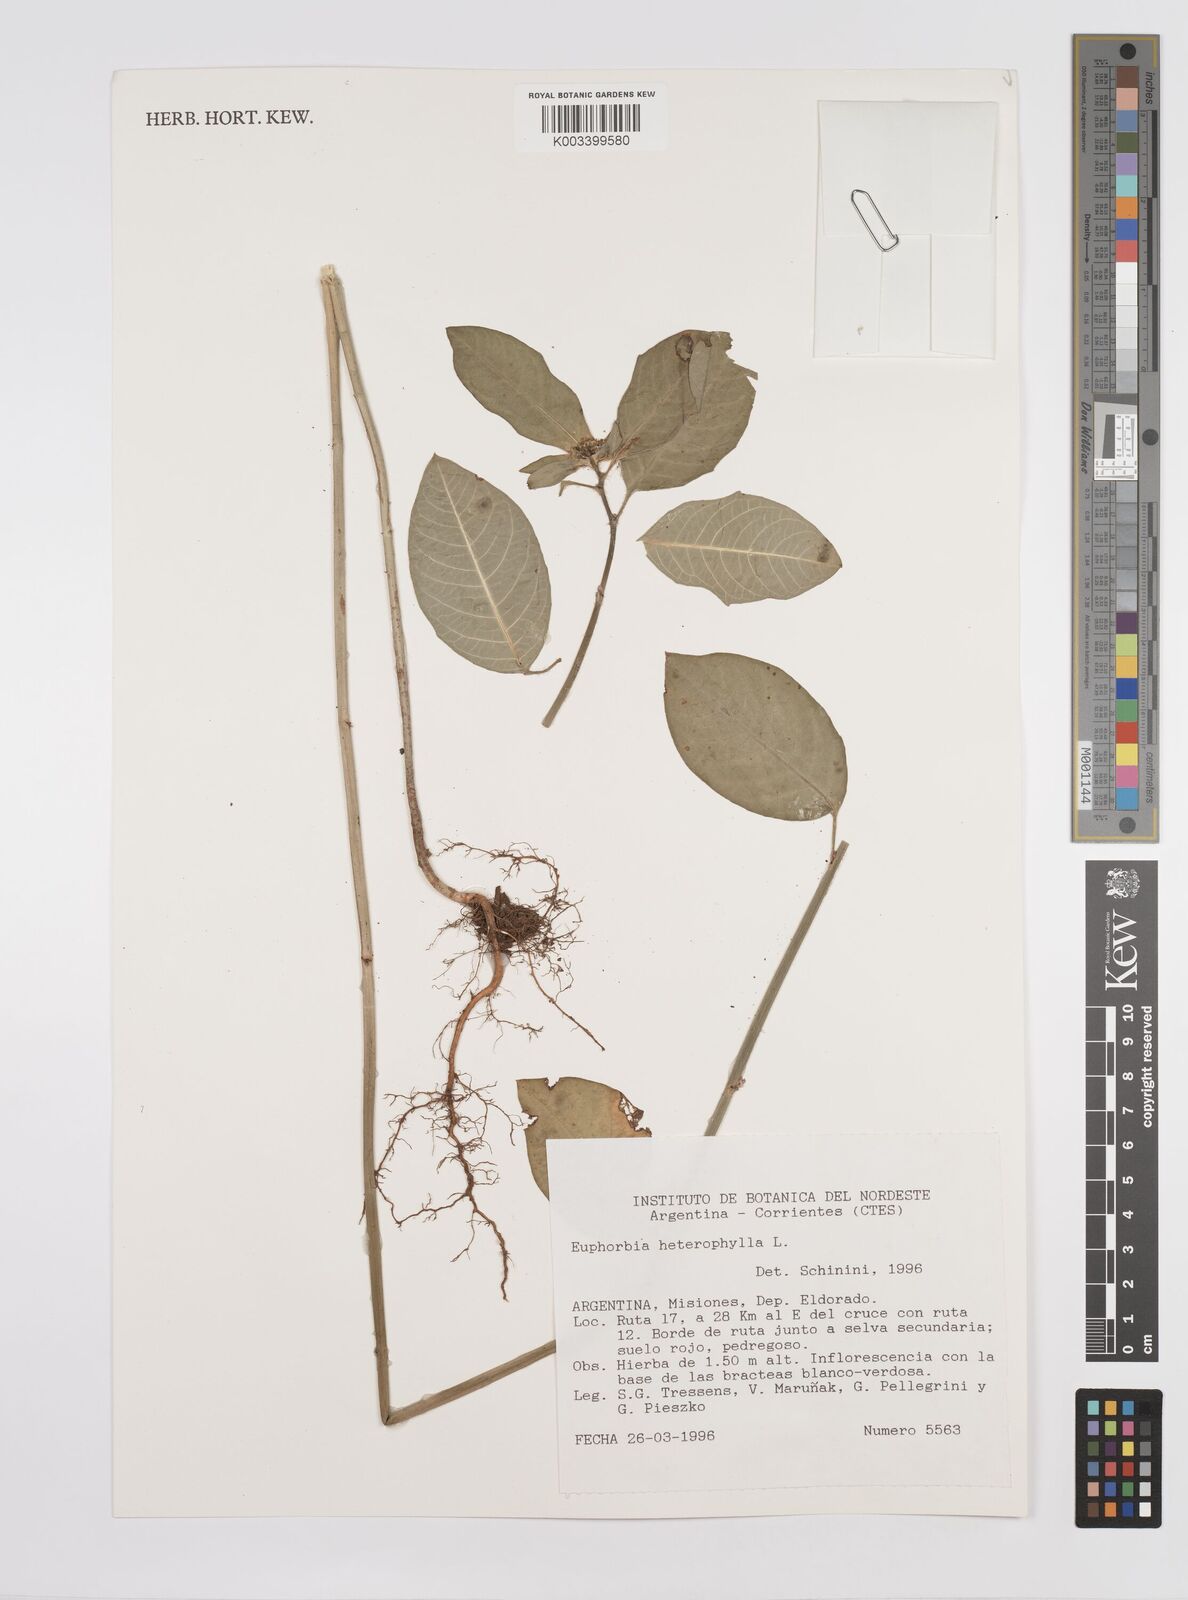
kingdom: Plantae
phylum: Tracheophyta
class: Magnoliopsida
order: Malpighiales
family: Euphorbiaceae
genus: Euphorbia
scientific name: Euphorbia
